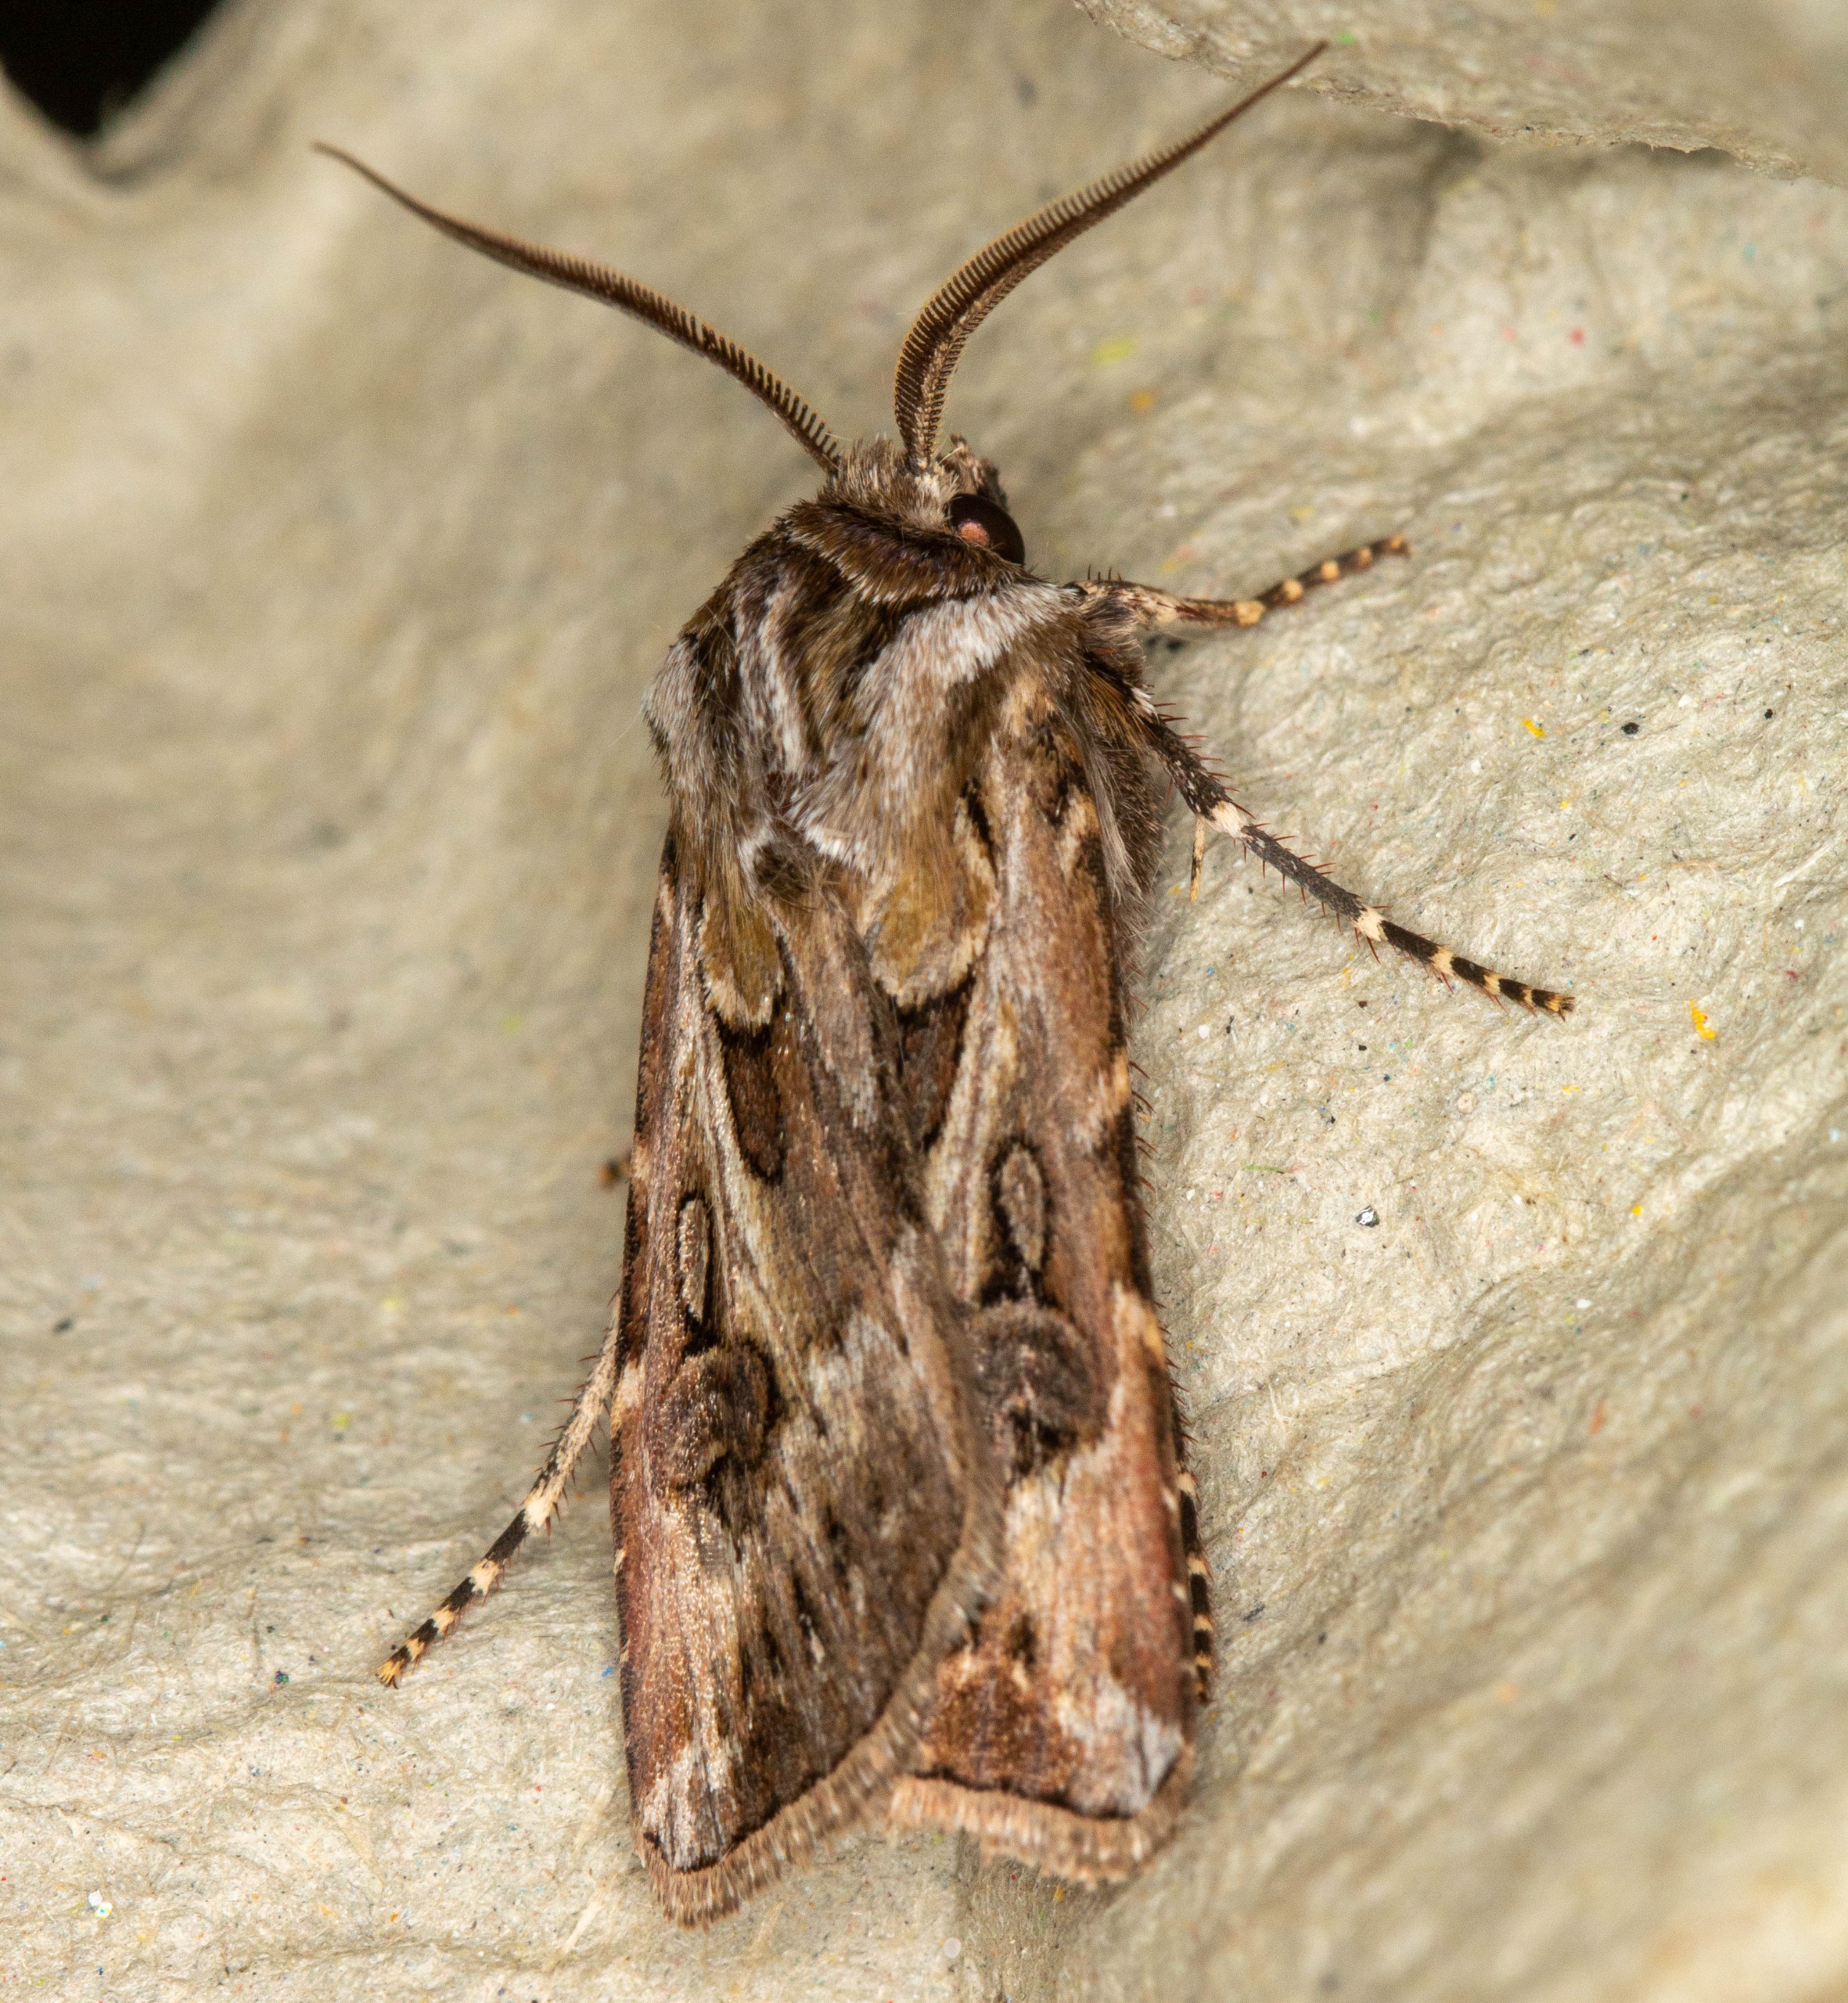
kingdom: Animalia
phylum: Arthropoda
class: Insecta
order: Lepidoptera
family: Noctuidae
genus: Agrotis
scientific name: Agrotis vestigialis
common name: Strand-landmand
